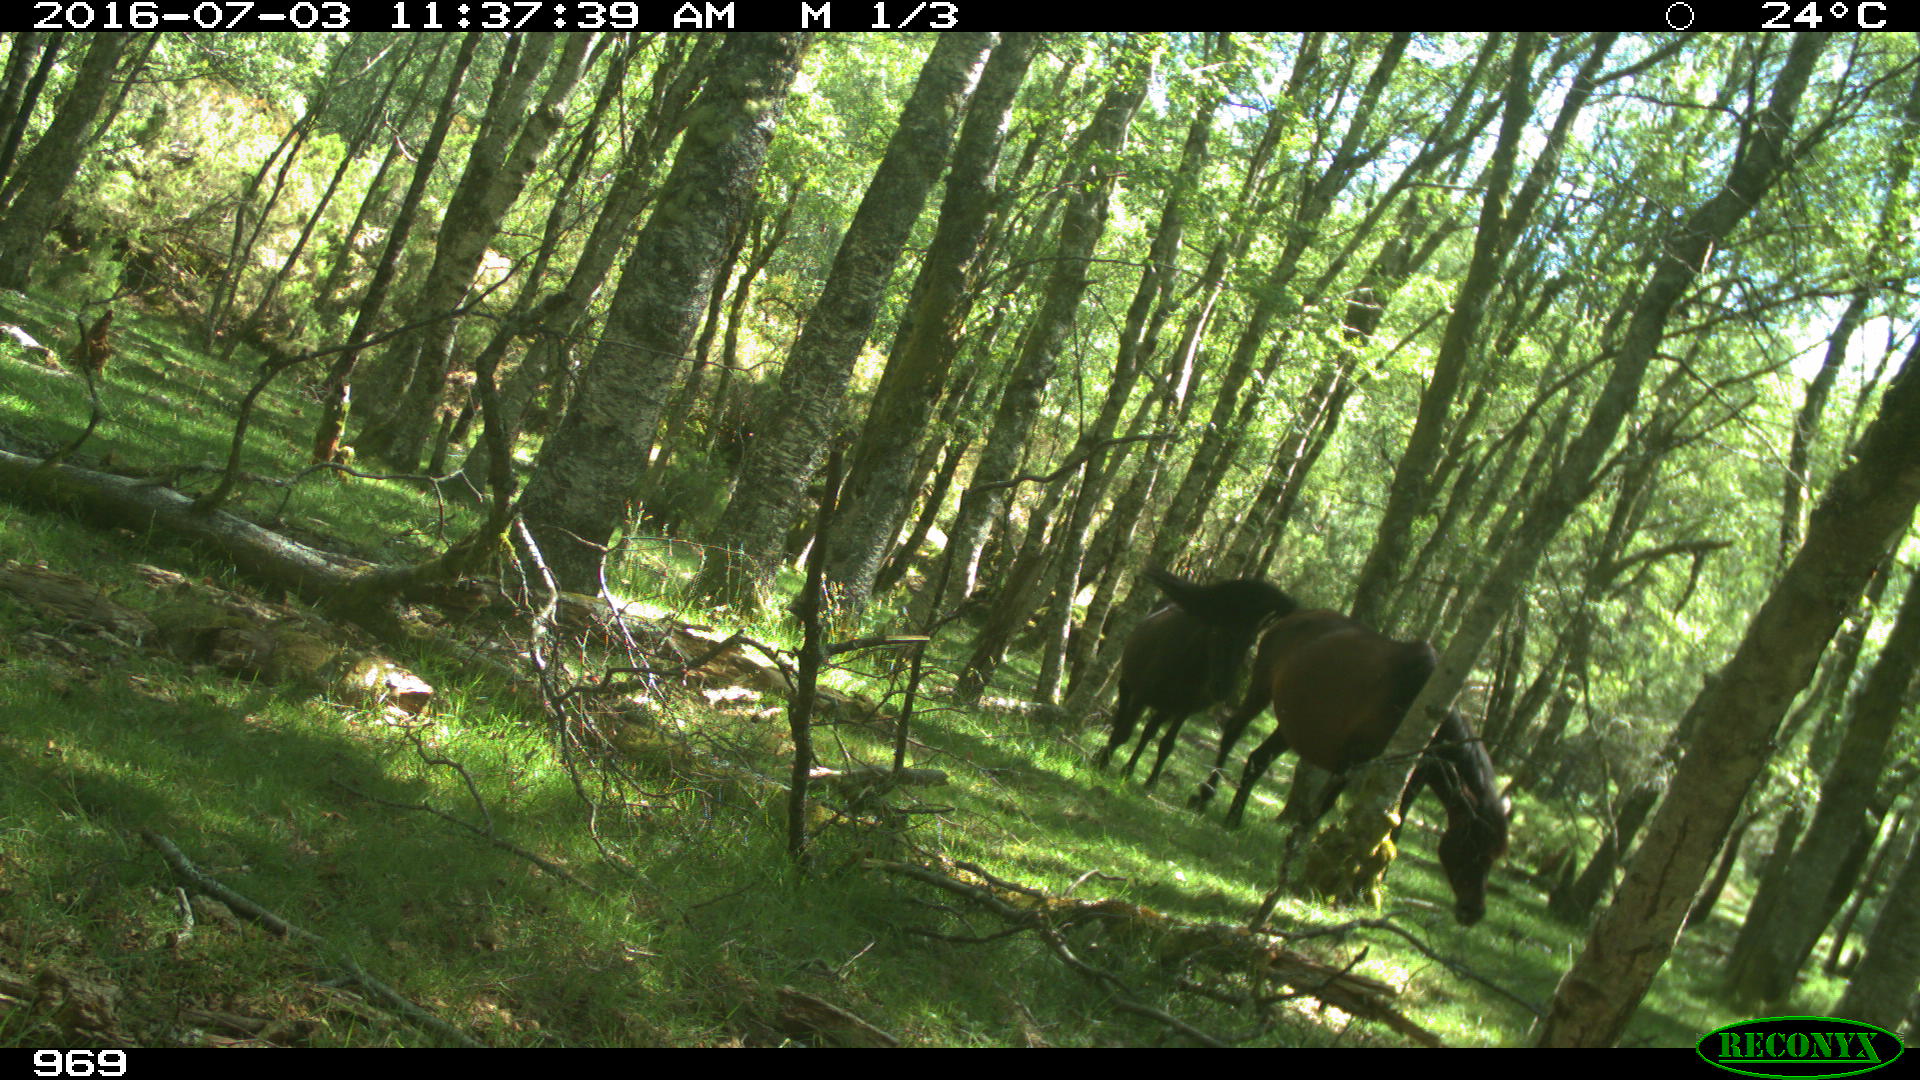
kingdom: Animalia
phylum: Chordata
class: Mammalia
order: Perissodactyla
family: Equidae
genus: Equus
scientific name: Equus caballus
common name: Horse
